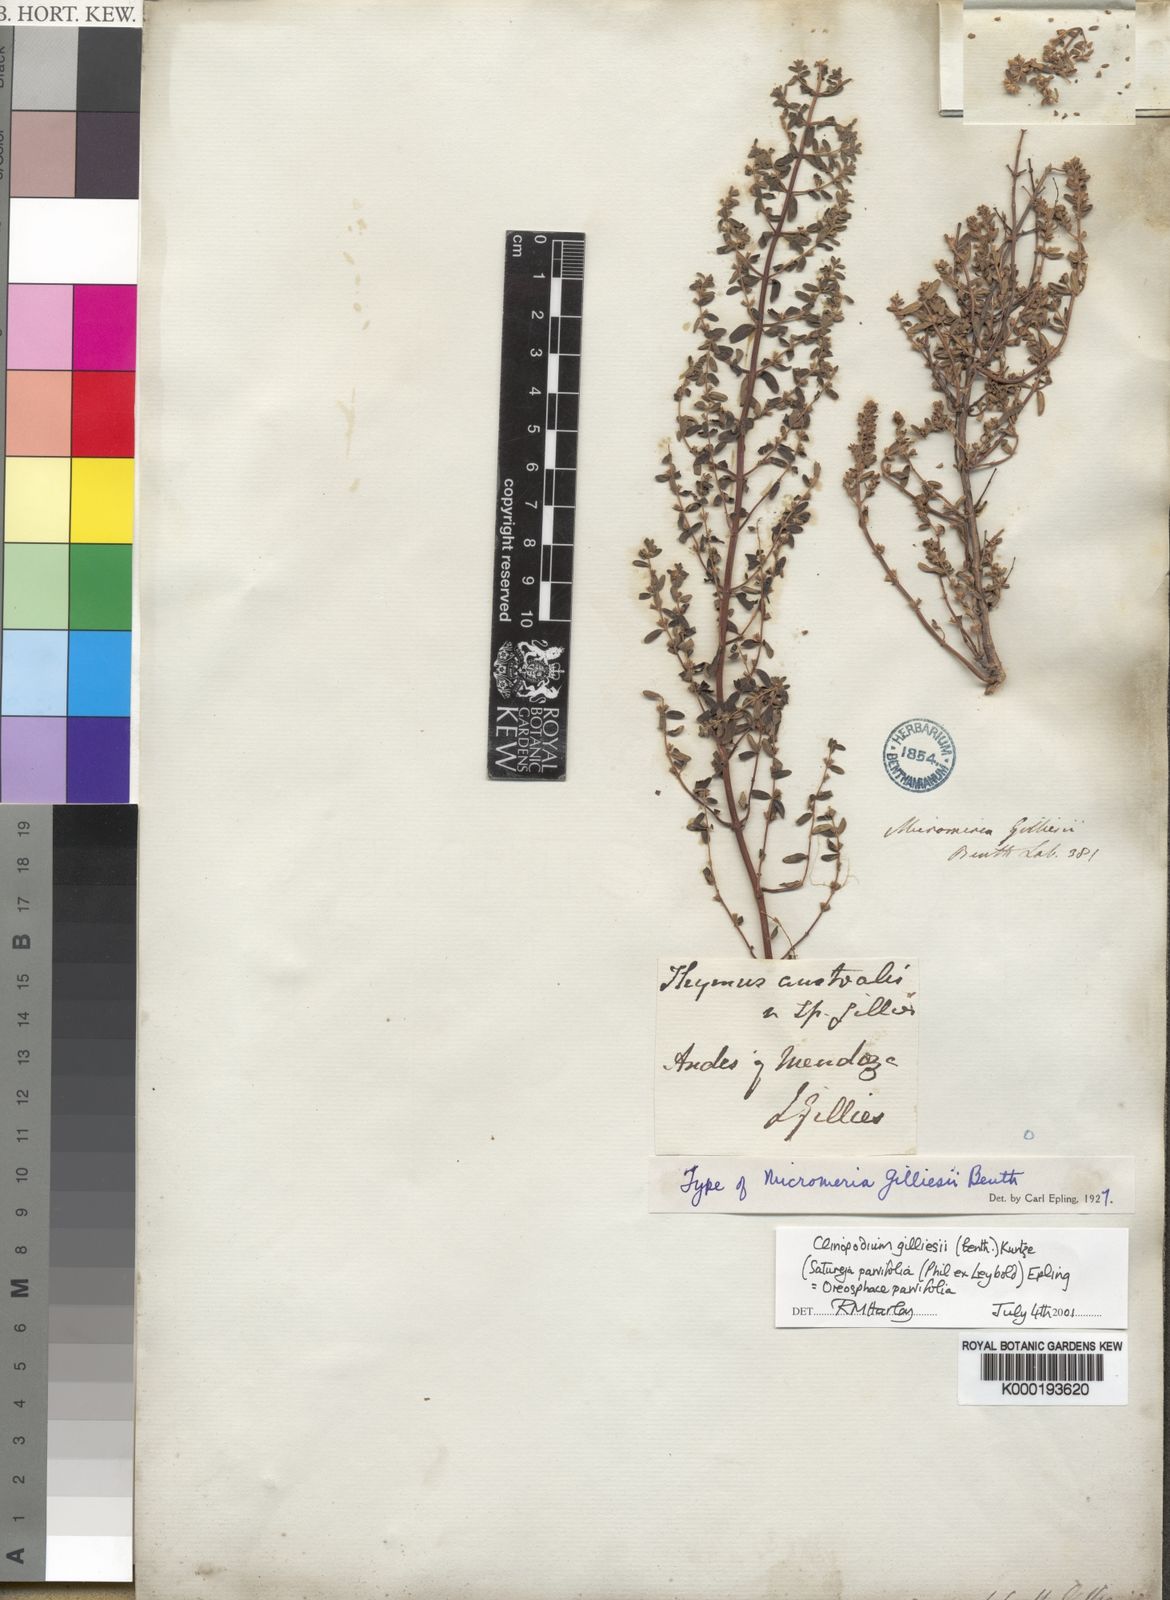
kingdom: Plantae
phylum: Tracheophyta
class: Magnoliopsida
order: Lamiales
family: Lamiaceae
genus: Clinopodium
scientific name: Clinopodium gilliesii
